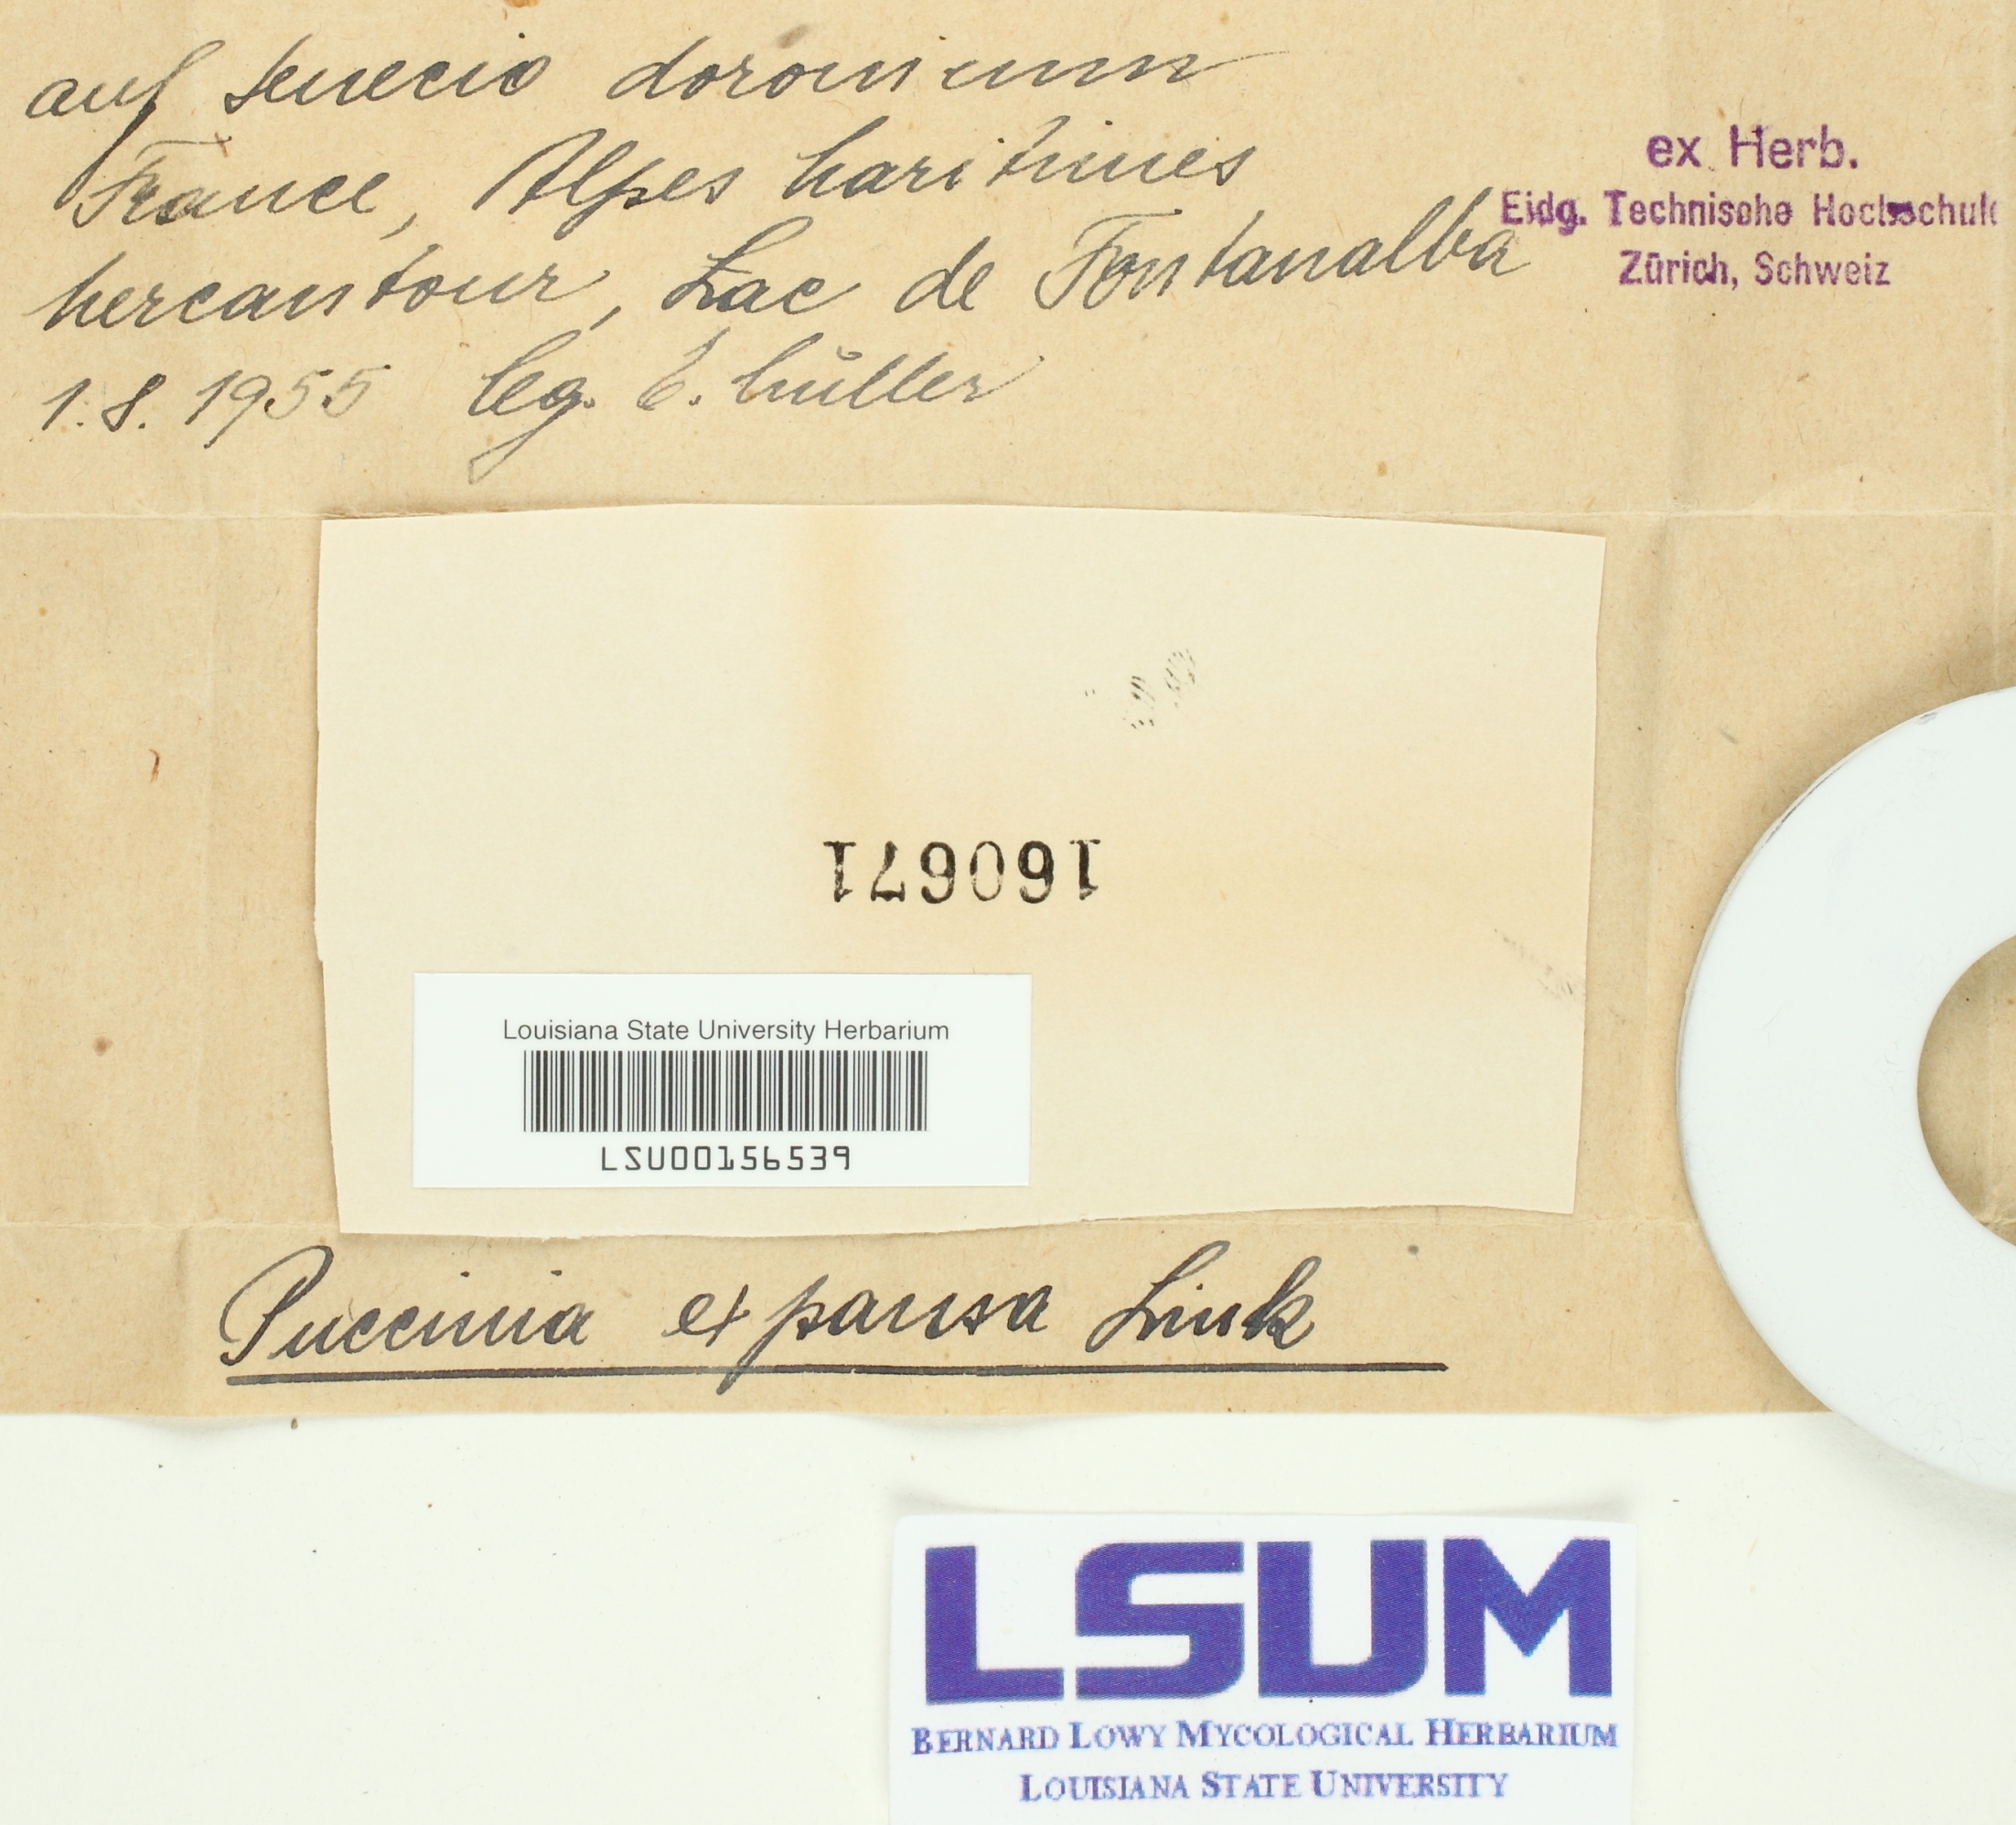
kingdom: Fungi
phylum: Basidiomycota
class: Pucciniomycetes
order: Pucciniales
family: Pucciniaceae
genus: Puccinia
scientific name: Puccinia glomerata
